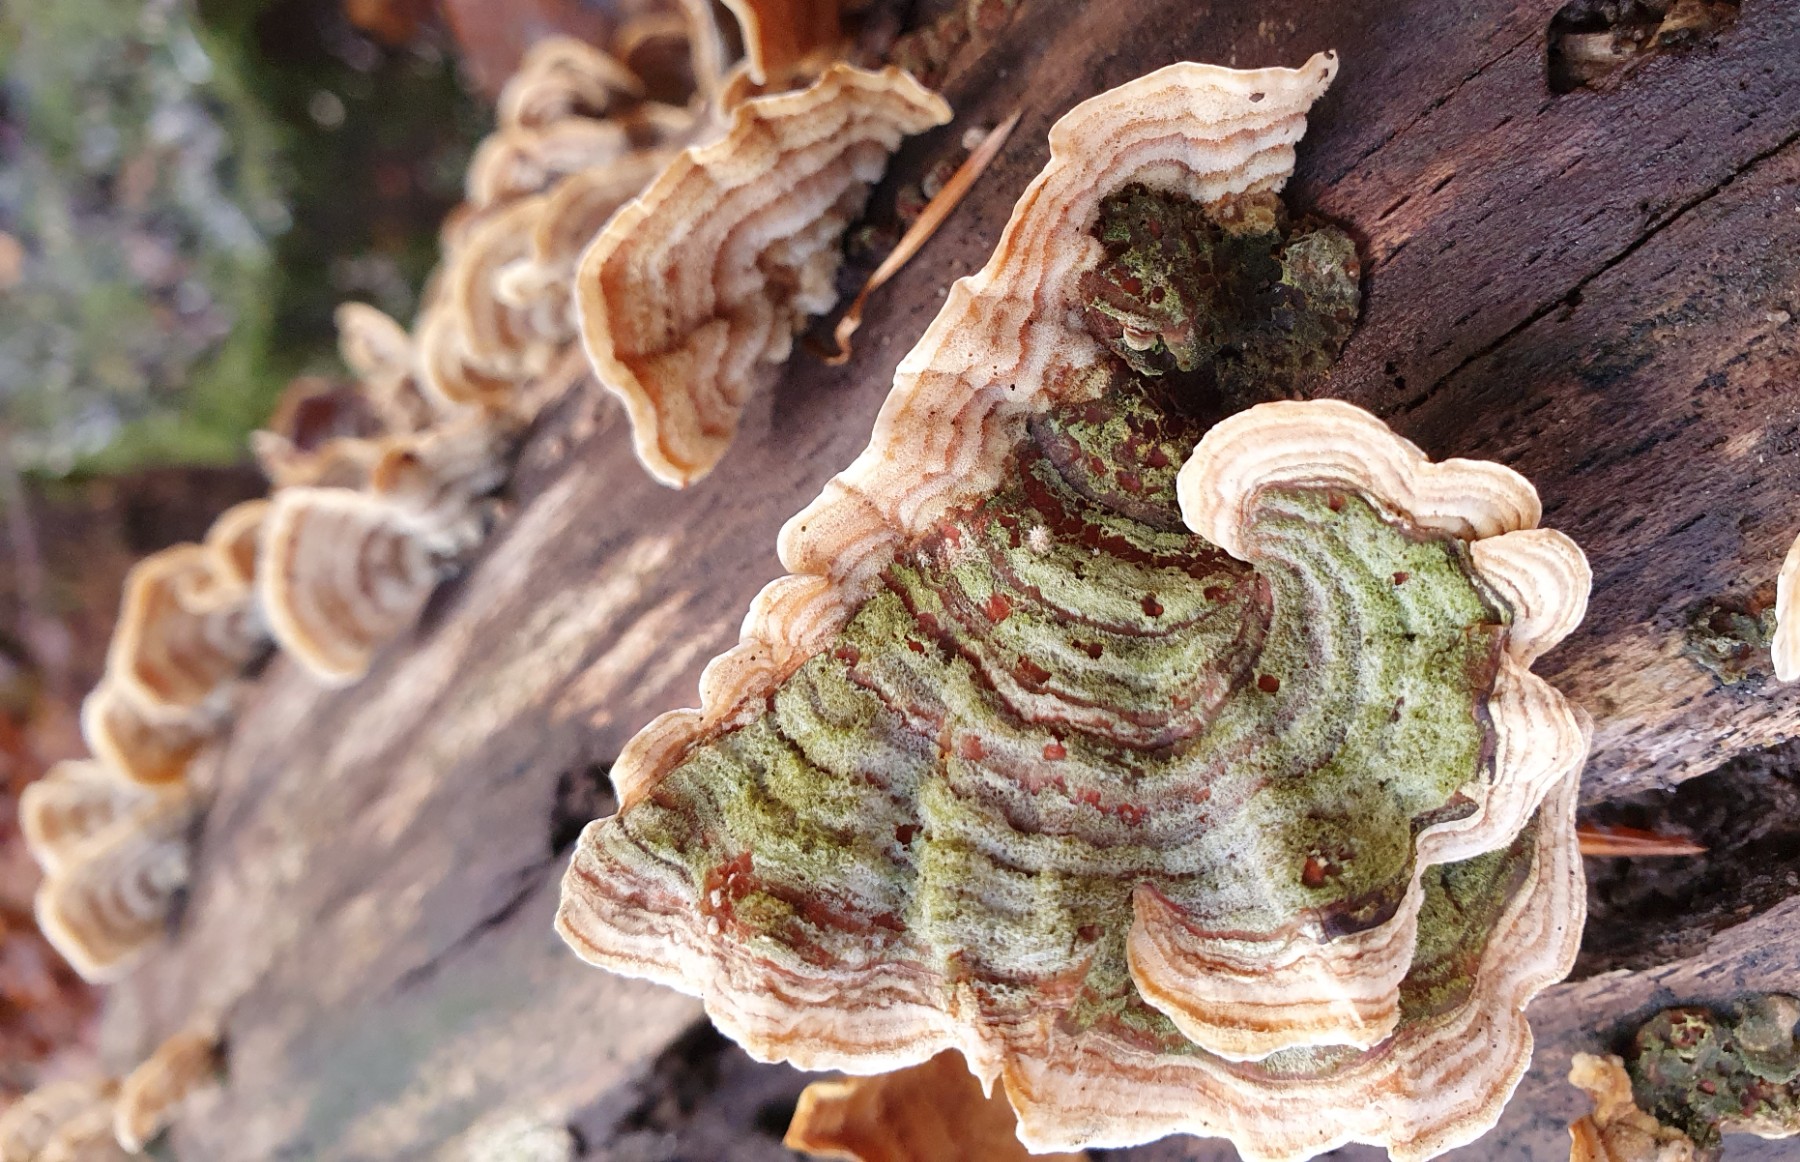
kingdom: Fungi
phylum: Basidiomycota
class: Agaricomycetes
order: Russulales
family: Stereaceae
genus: Stereum
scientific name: Stereum subtomentosum
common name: smuk lædersvamp
